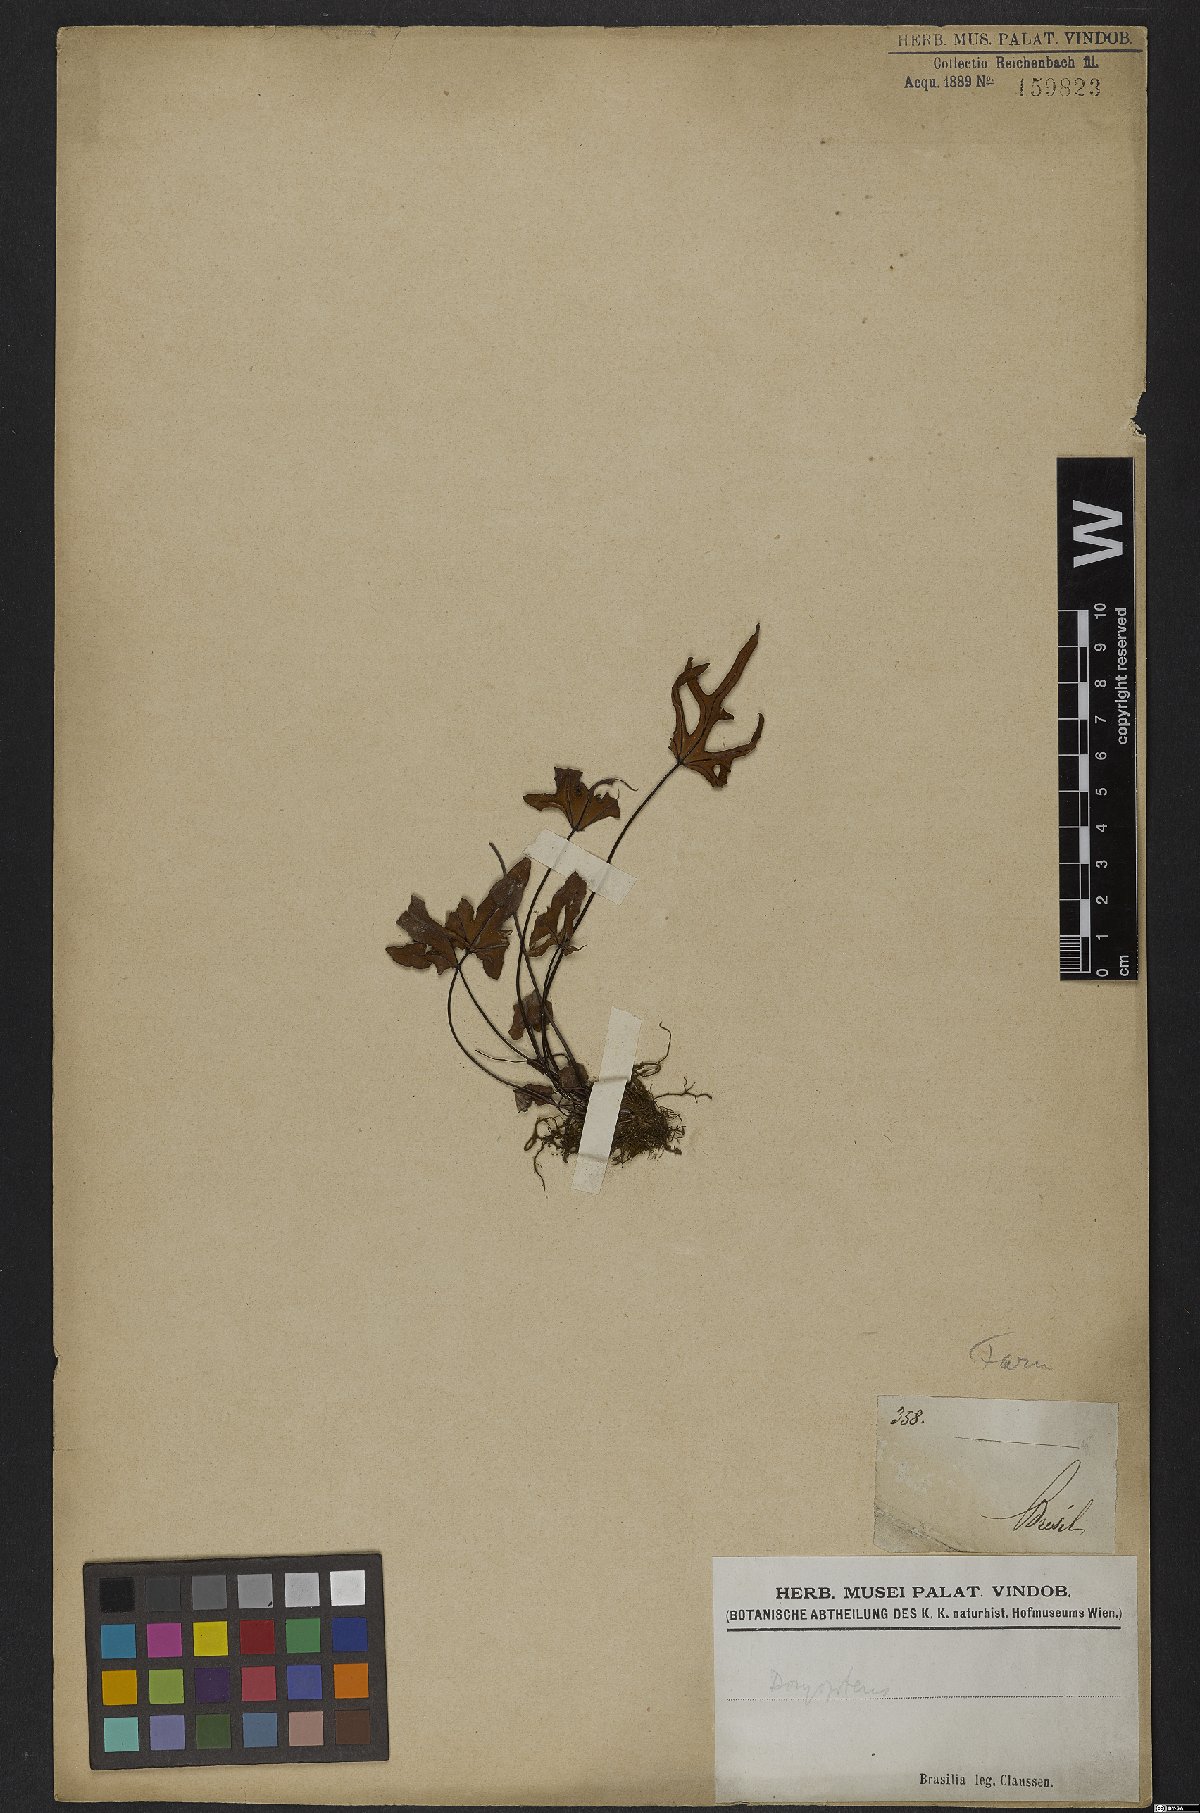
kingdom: Plantae
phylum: Tracheophyta
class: Polypodiopsida
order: Polypodiales
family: Pteridaceae
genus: Doryopteris
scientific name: Doryopteris
